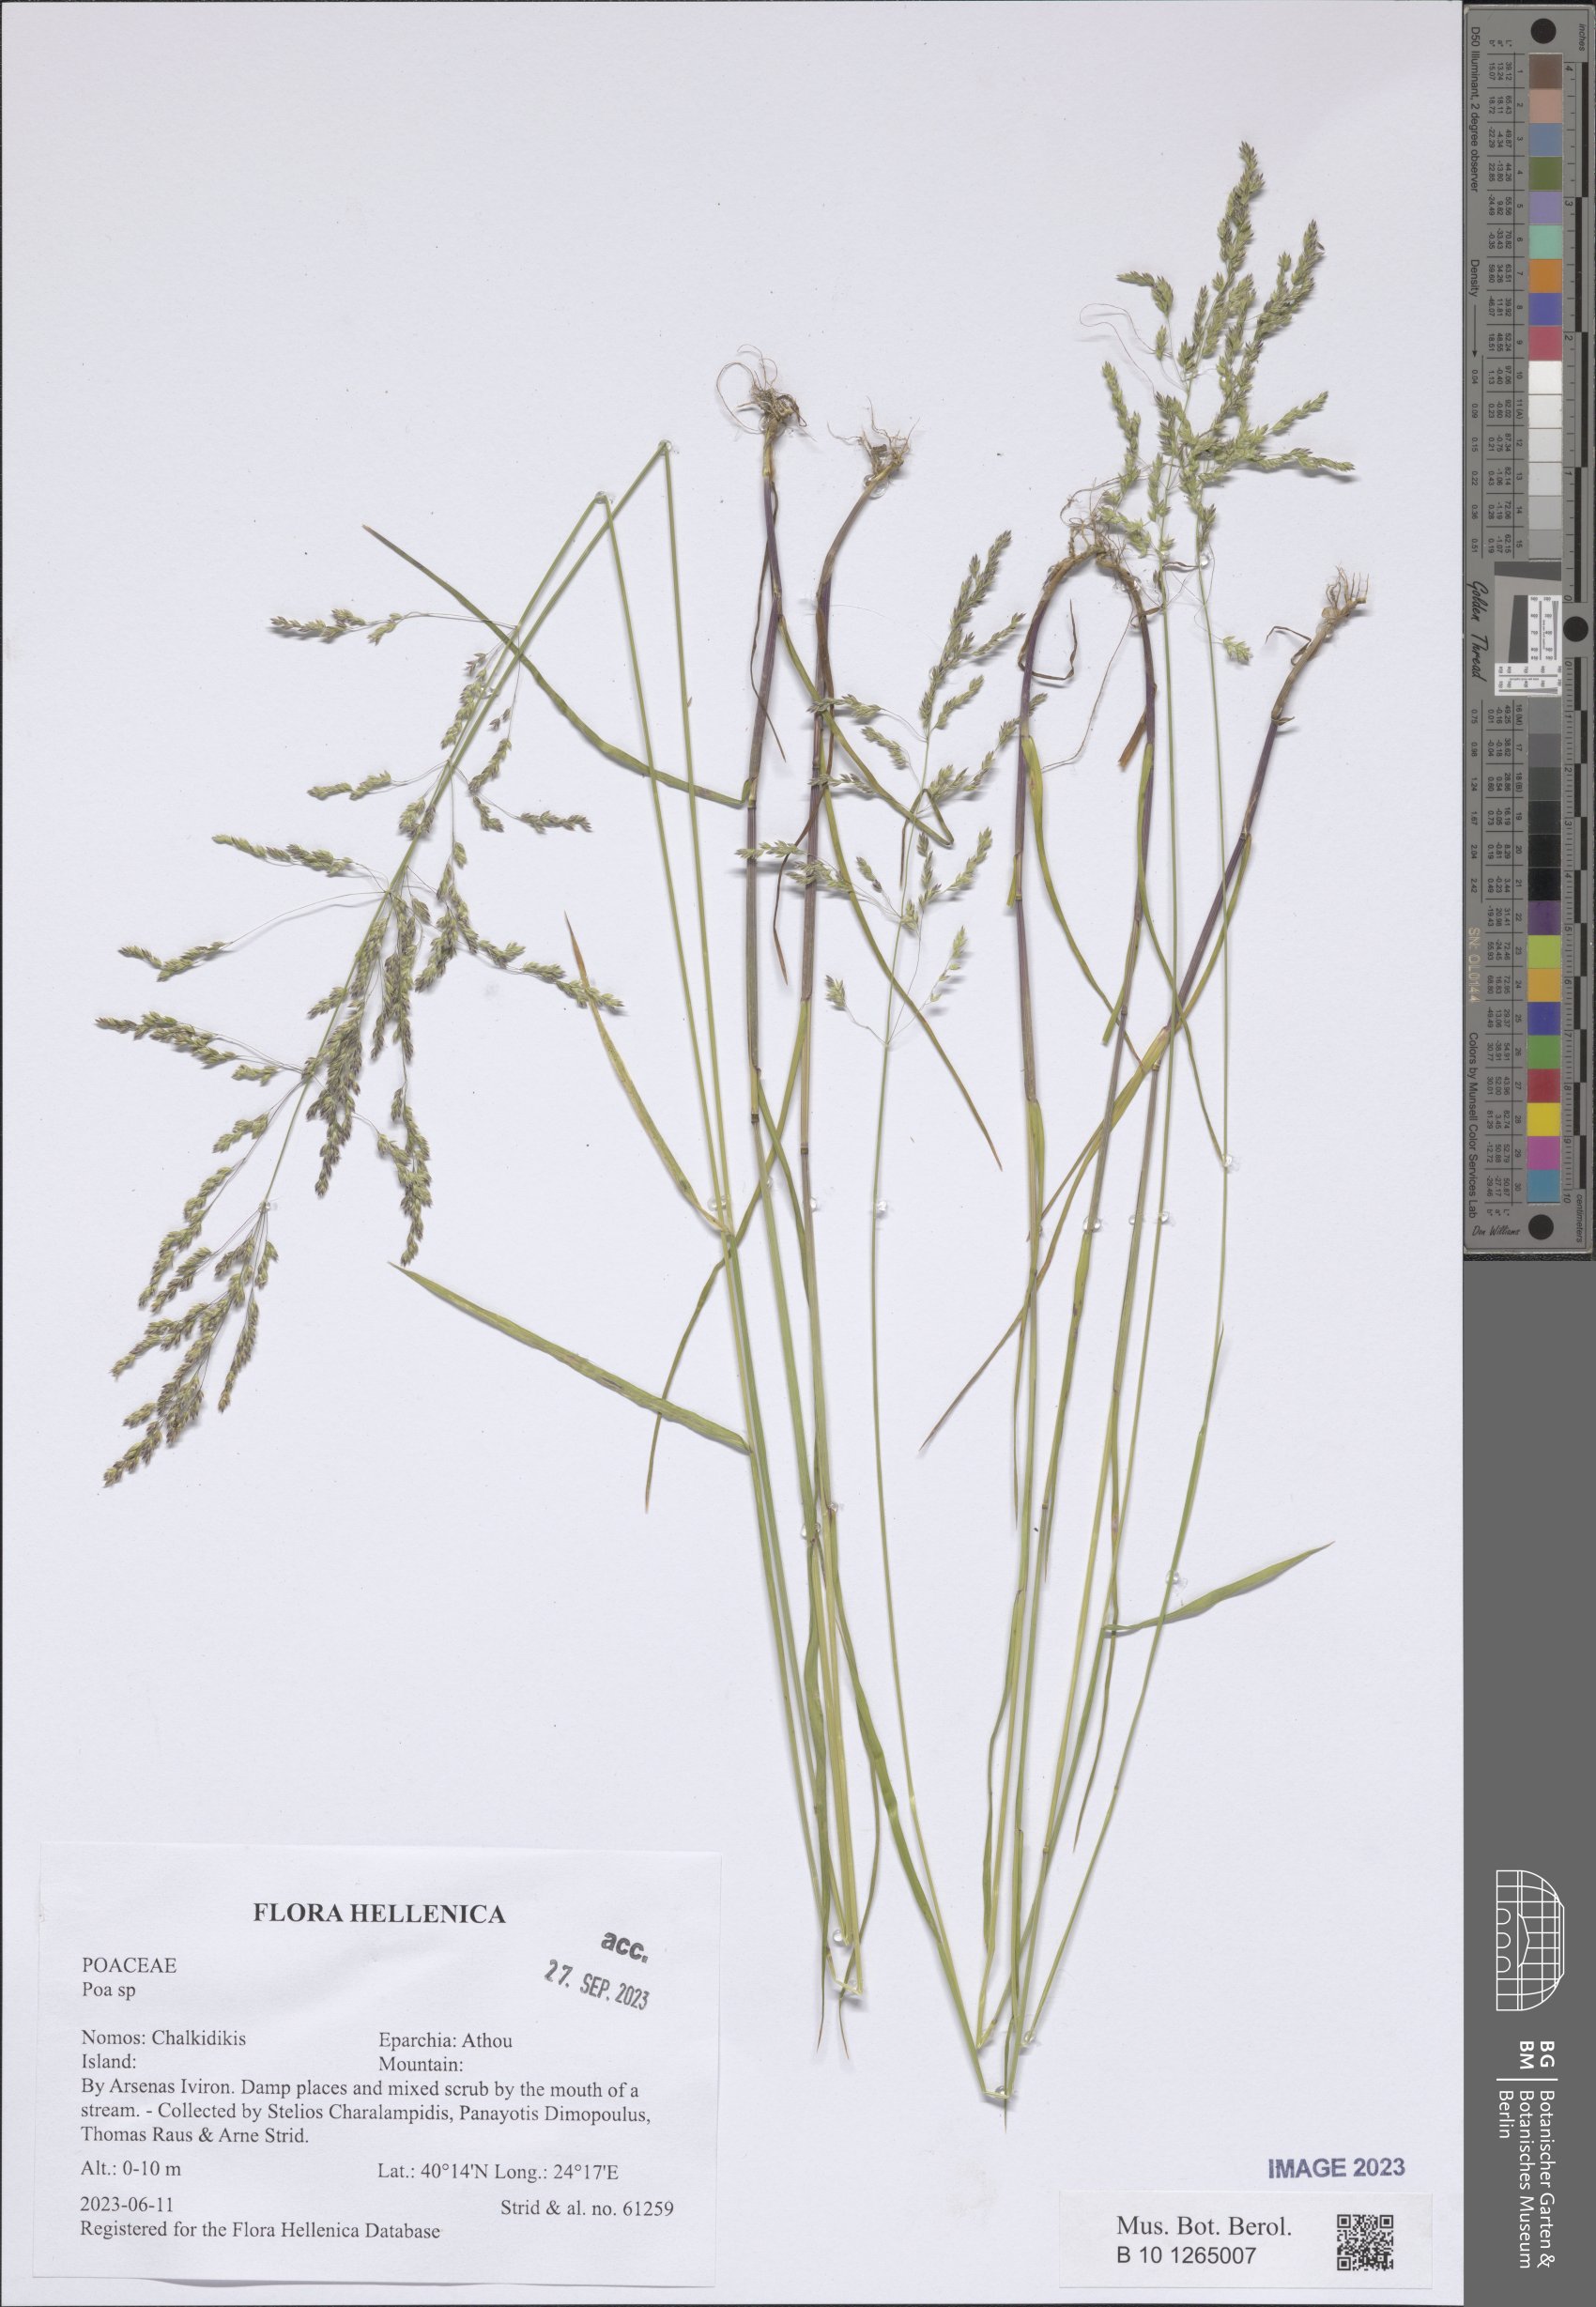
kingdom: Plantae
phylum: Tracheophyta
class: Liliopsida
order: Poales
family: Poaceae
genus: Poa
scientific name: Poa
